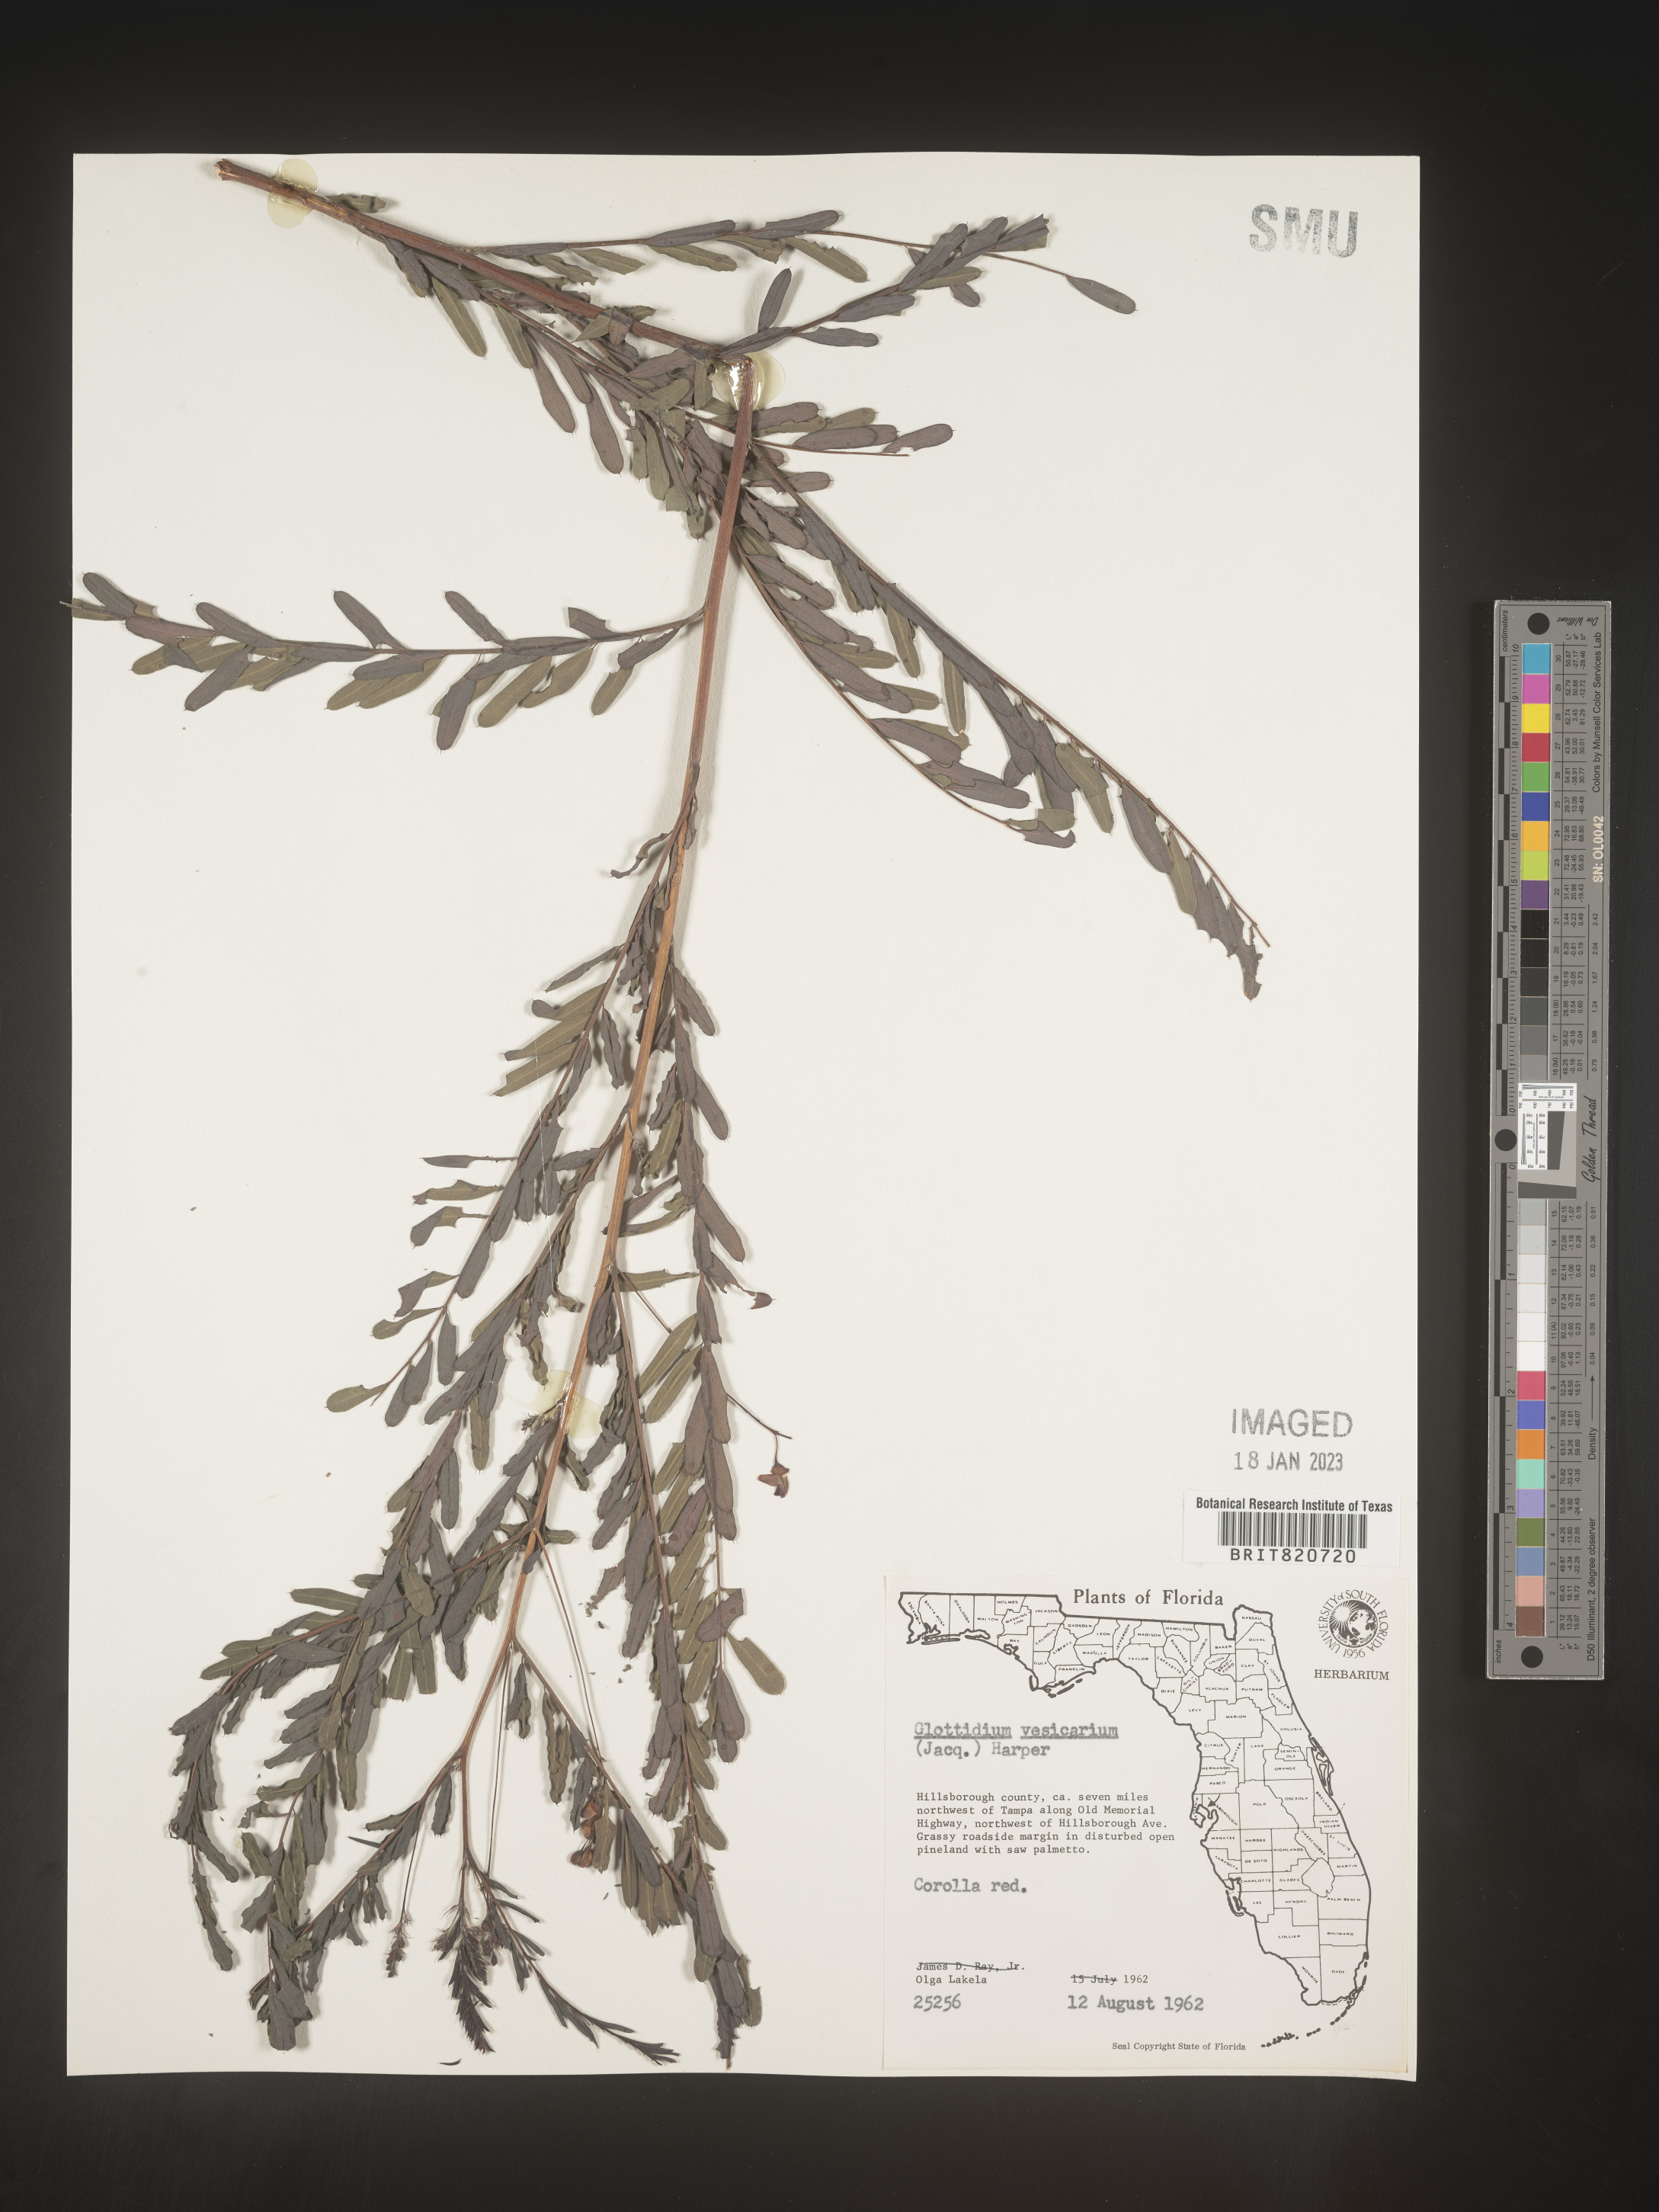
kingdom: Plantae
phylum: Tracheophyta
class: Magnoliopsida
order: Fabales
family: Fabaceae
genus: Sesbania
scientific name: Sesbania vesicaria
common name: Bagpod
